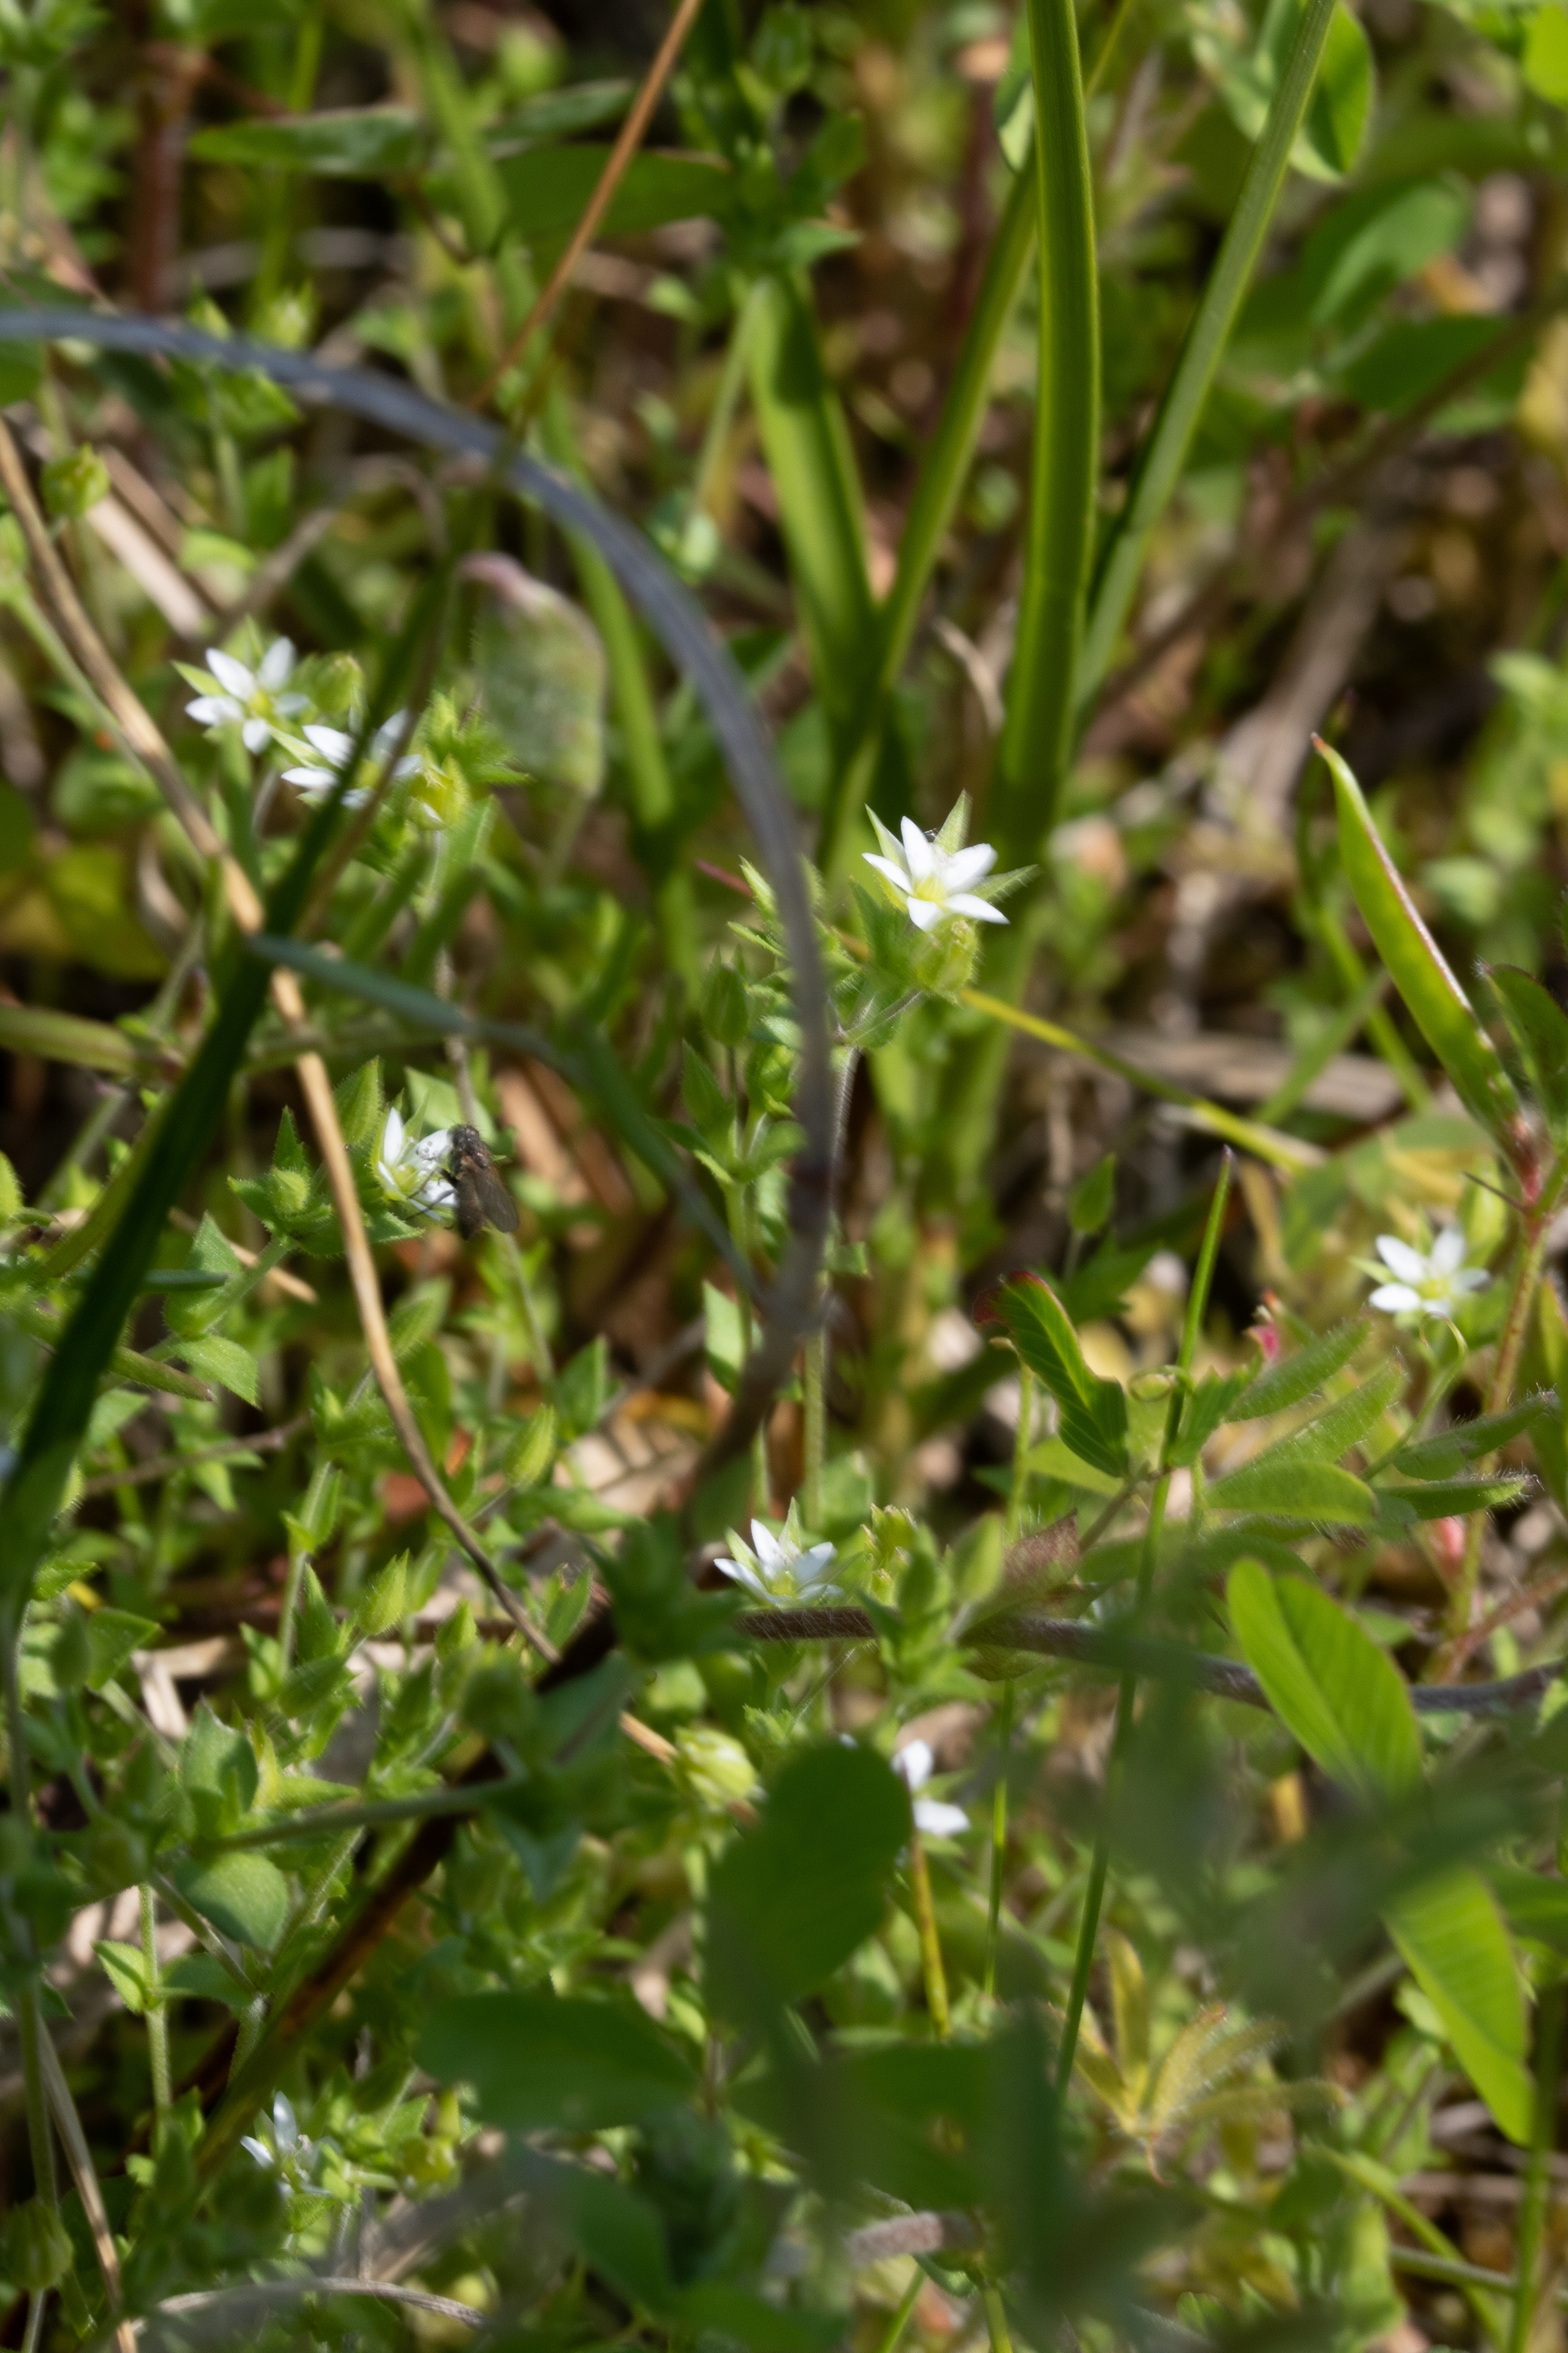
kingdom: Plantae
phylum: Tracheophyta
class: Magnoliopsida
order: Caryophyllales
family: Caryophyllaceae
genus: Arenaria
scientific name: Arenaria serpyllifolia
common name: Almindelig markarve
